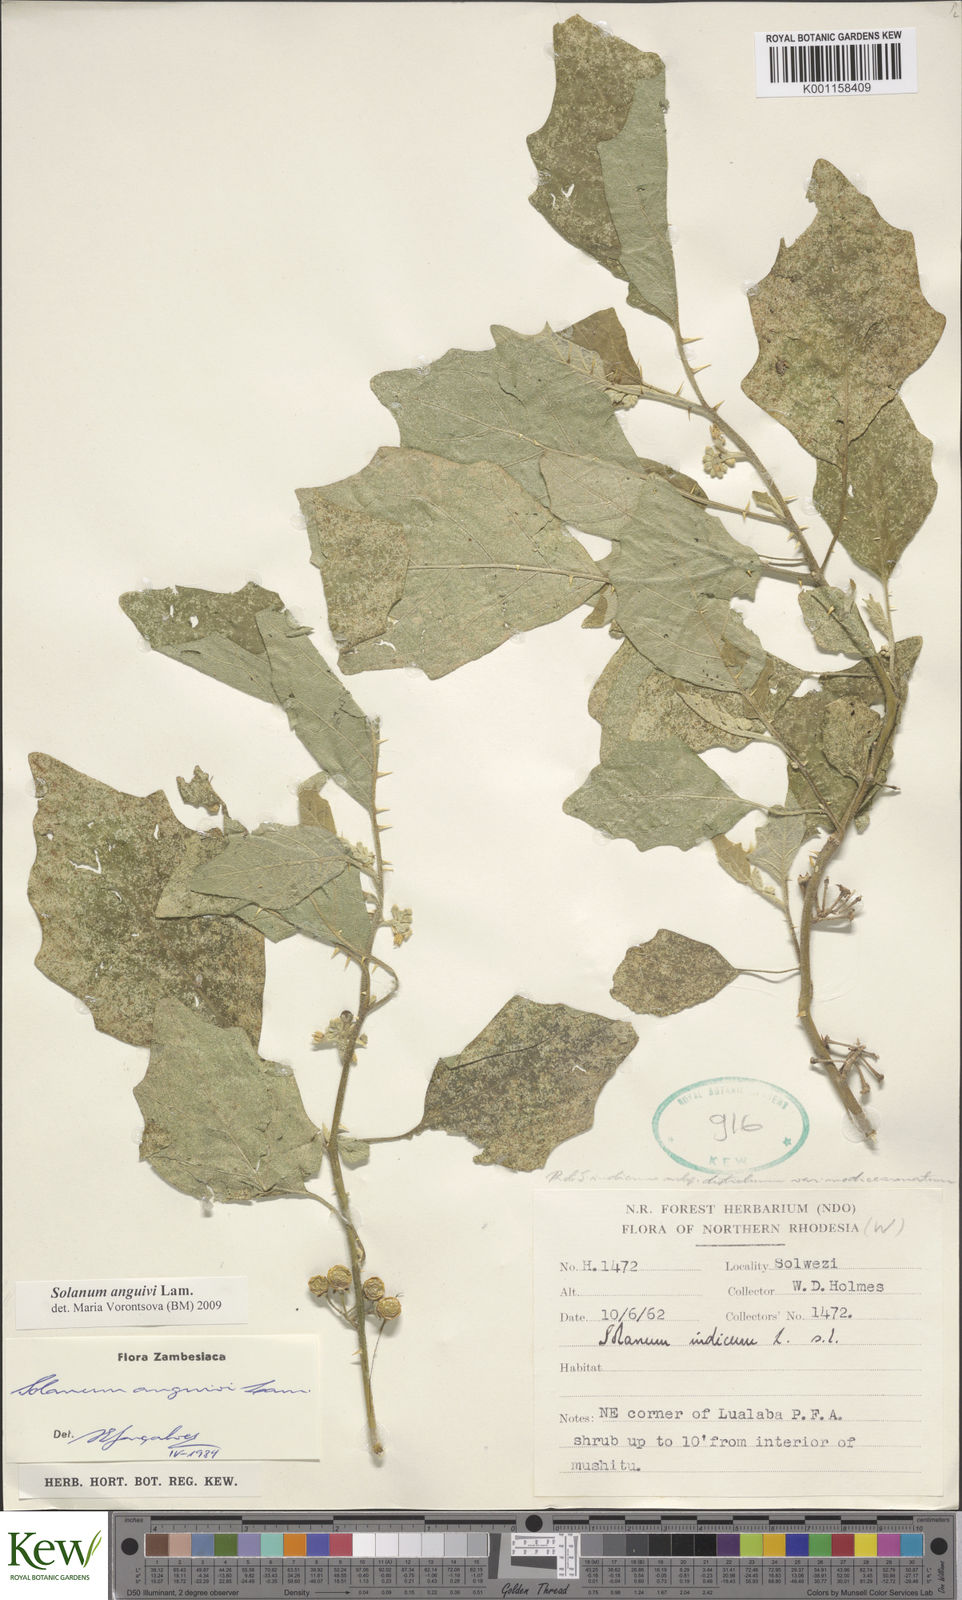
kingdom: Plantae
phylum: Tracheophyta
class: Magnoliopsida
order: Solanales
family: Solanaceae
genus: Solanum
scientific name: Solanum anguivi
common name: Forest bitterberry
